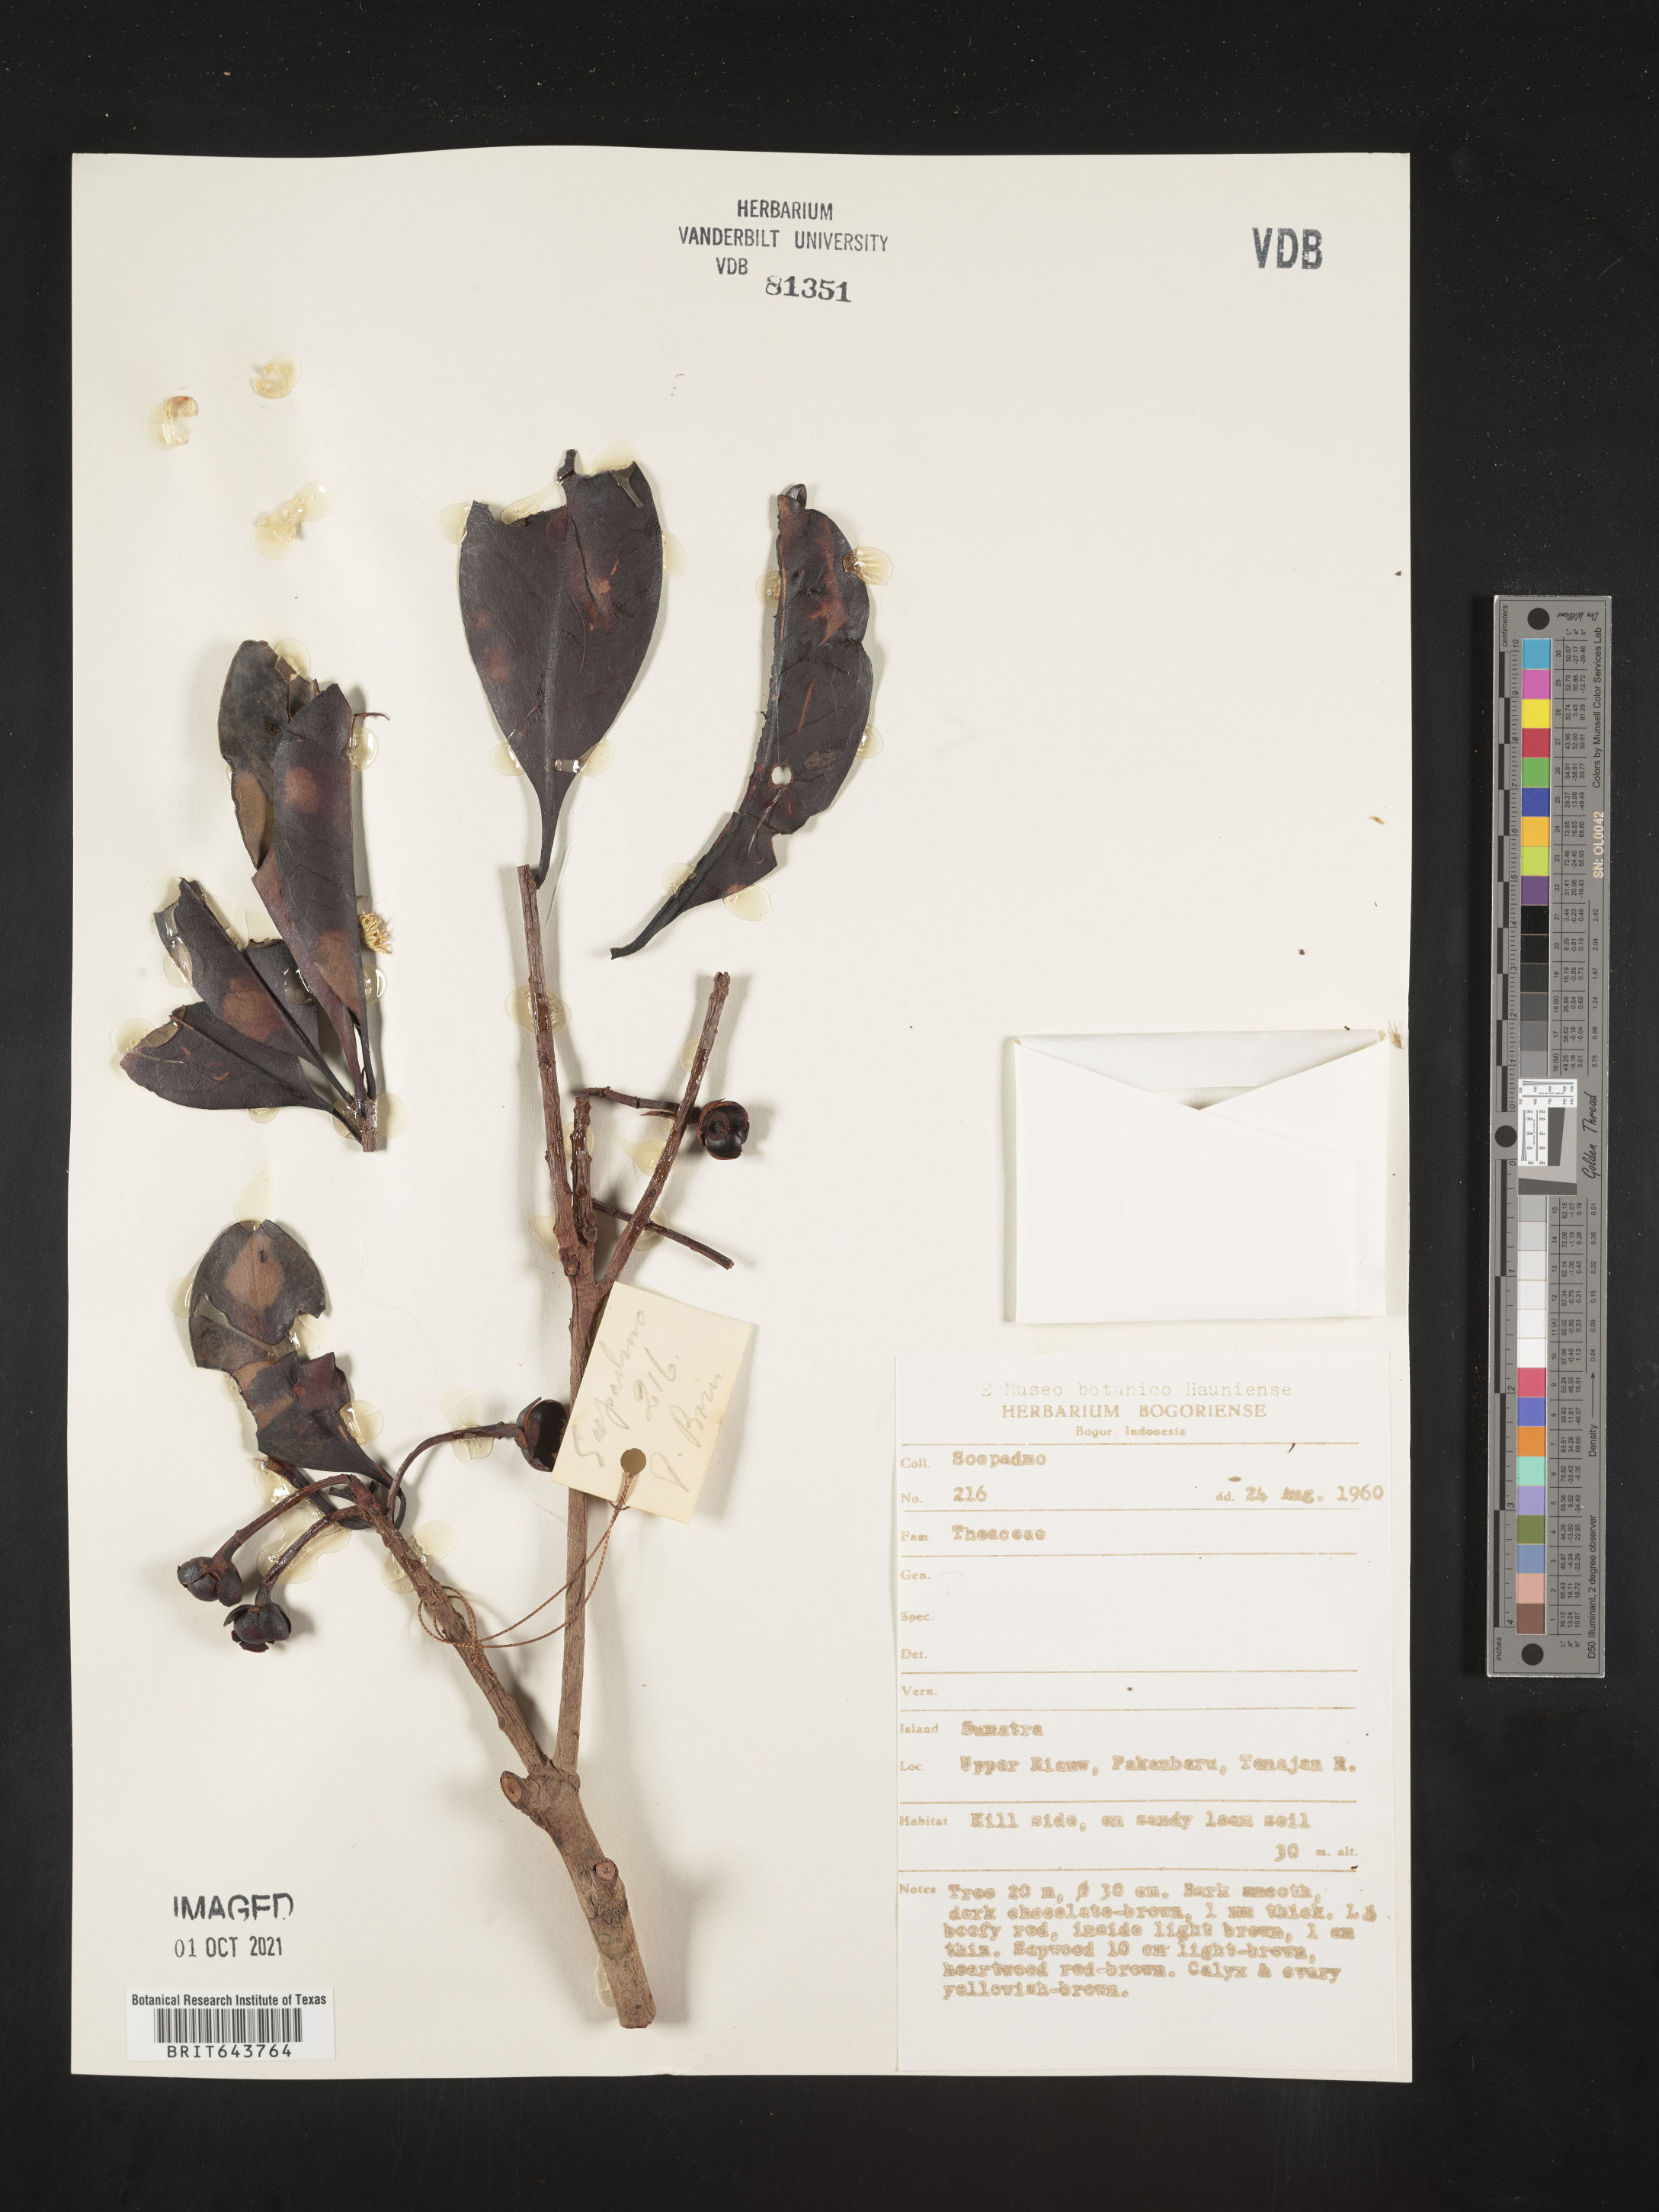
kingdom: Plantae
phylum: Tracheophyta
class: Magnoliopsida
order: Ericales
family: Theaceae
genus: Gordonia
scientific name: Gordonia
